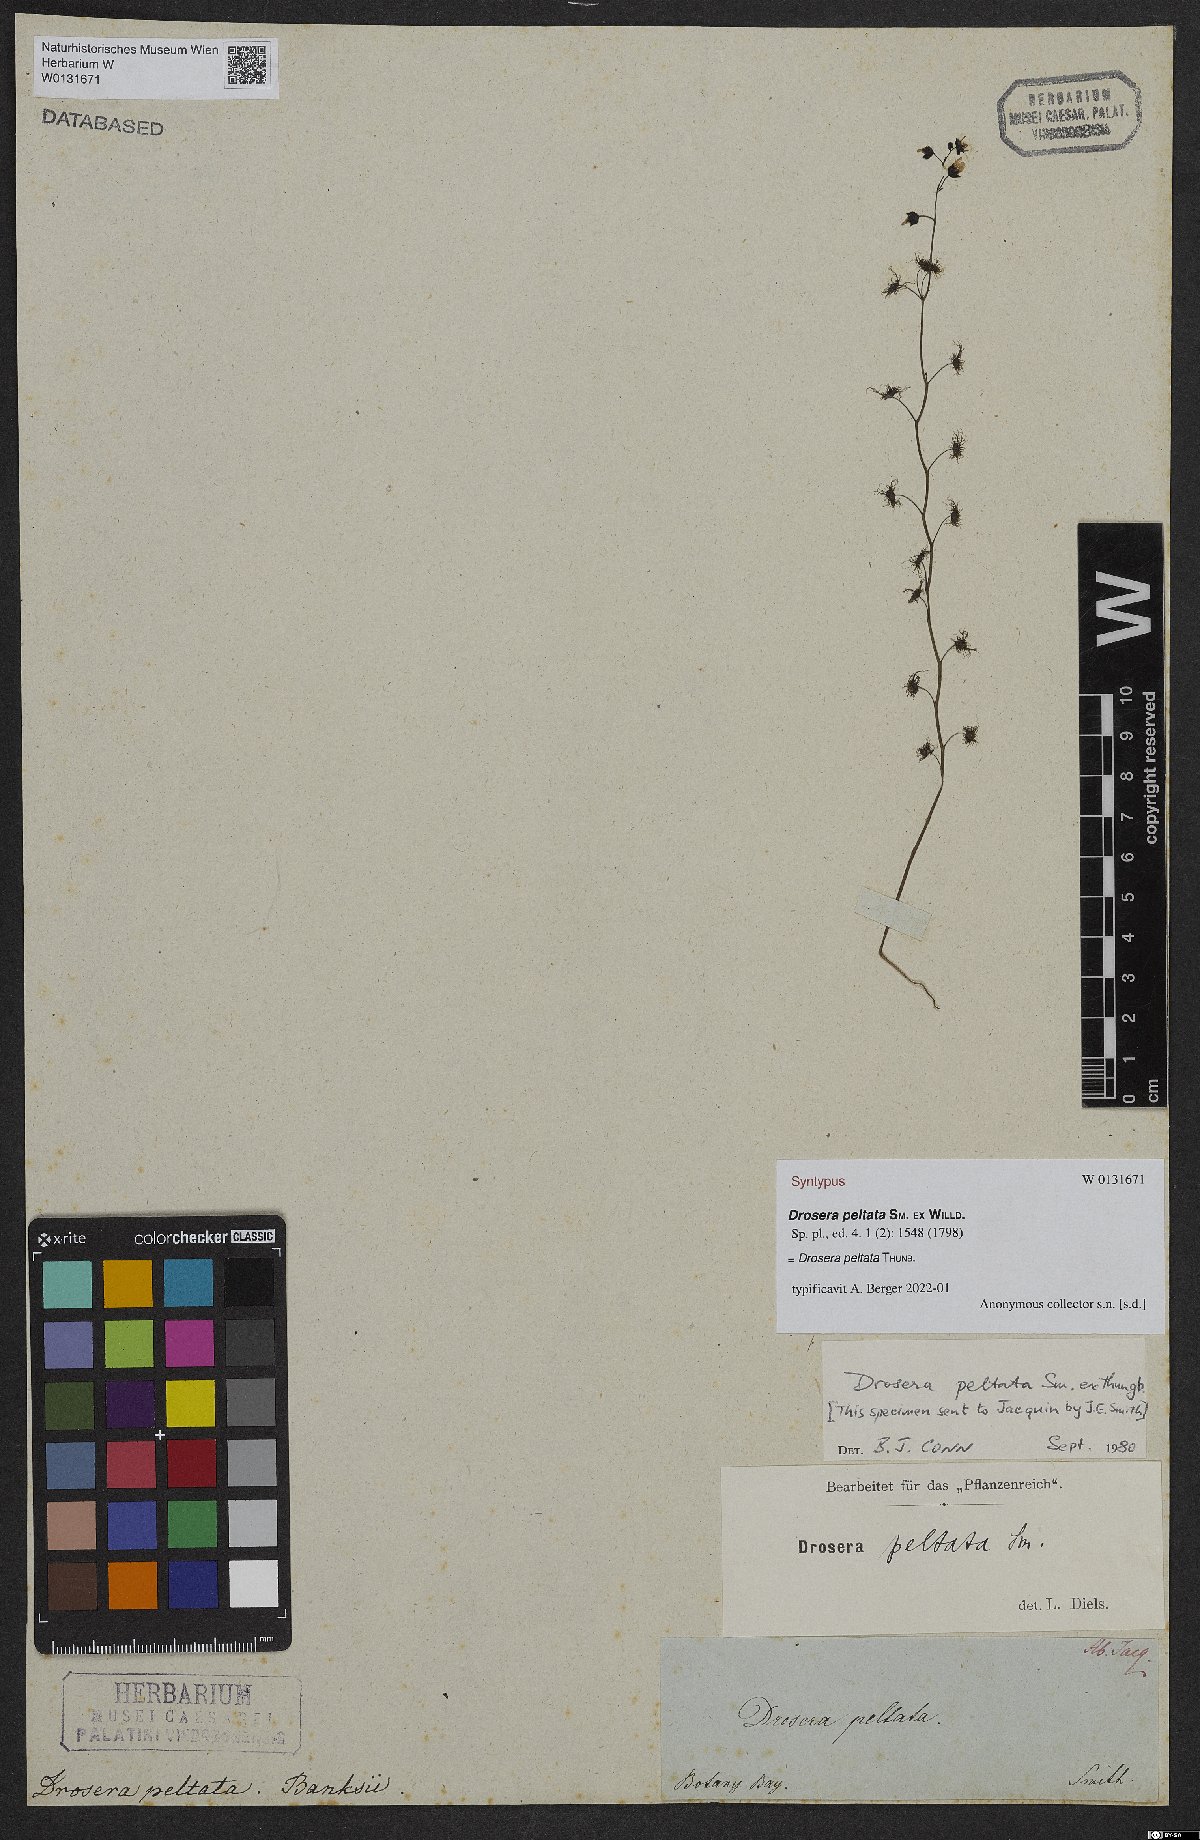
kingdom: Plantae
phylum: Tracheophyta
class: Magnoliopsida
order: Caryophyllales
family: Droseraceae
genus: Drosera
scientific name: Drosera peltata
